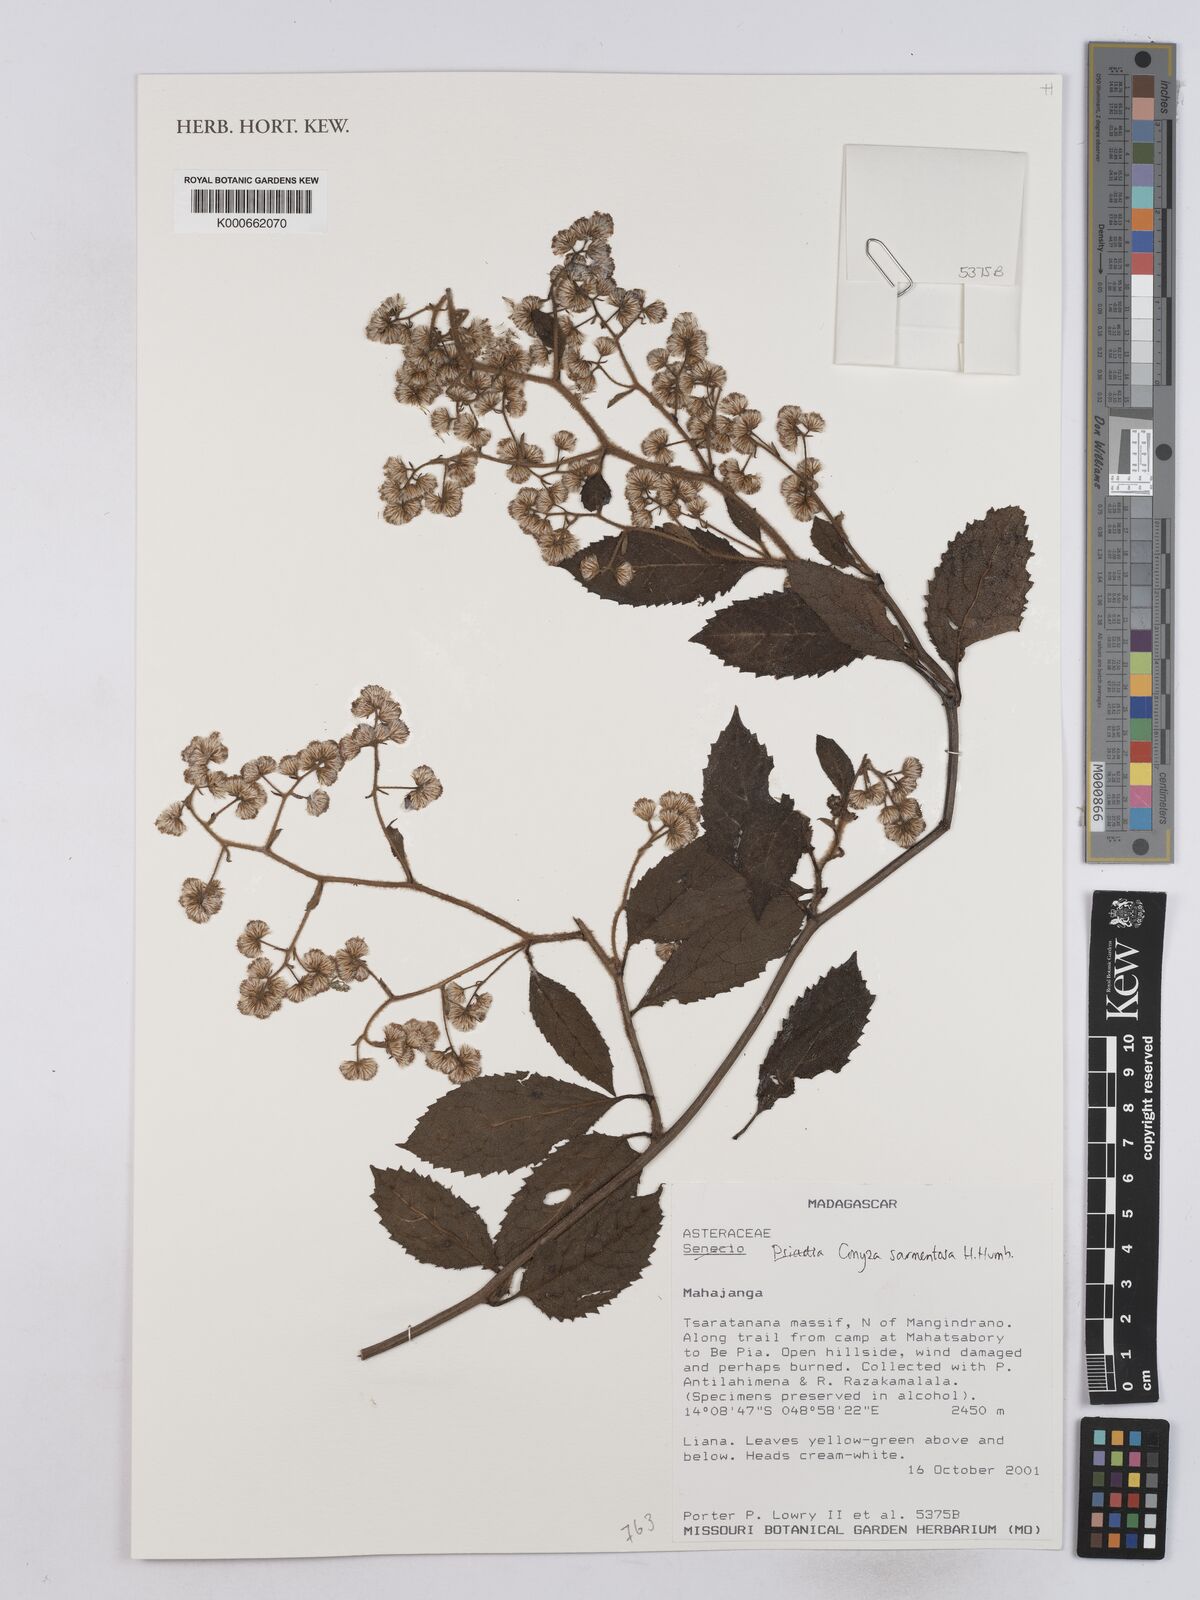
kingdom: Plantae
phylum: Tracheophyta
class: Magnoliopsida
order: Asterales
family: Asteraceae
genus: Conyza
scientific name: Conyza sarmentosa
